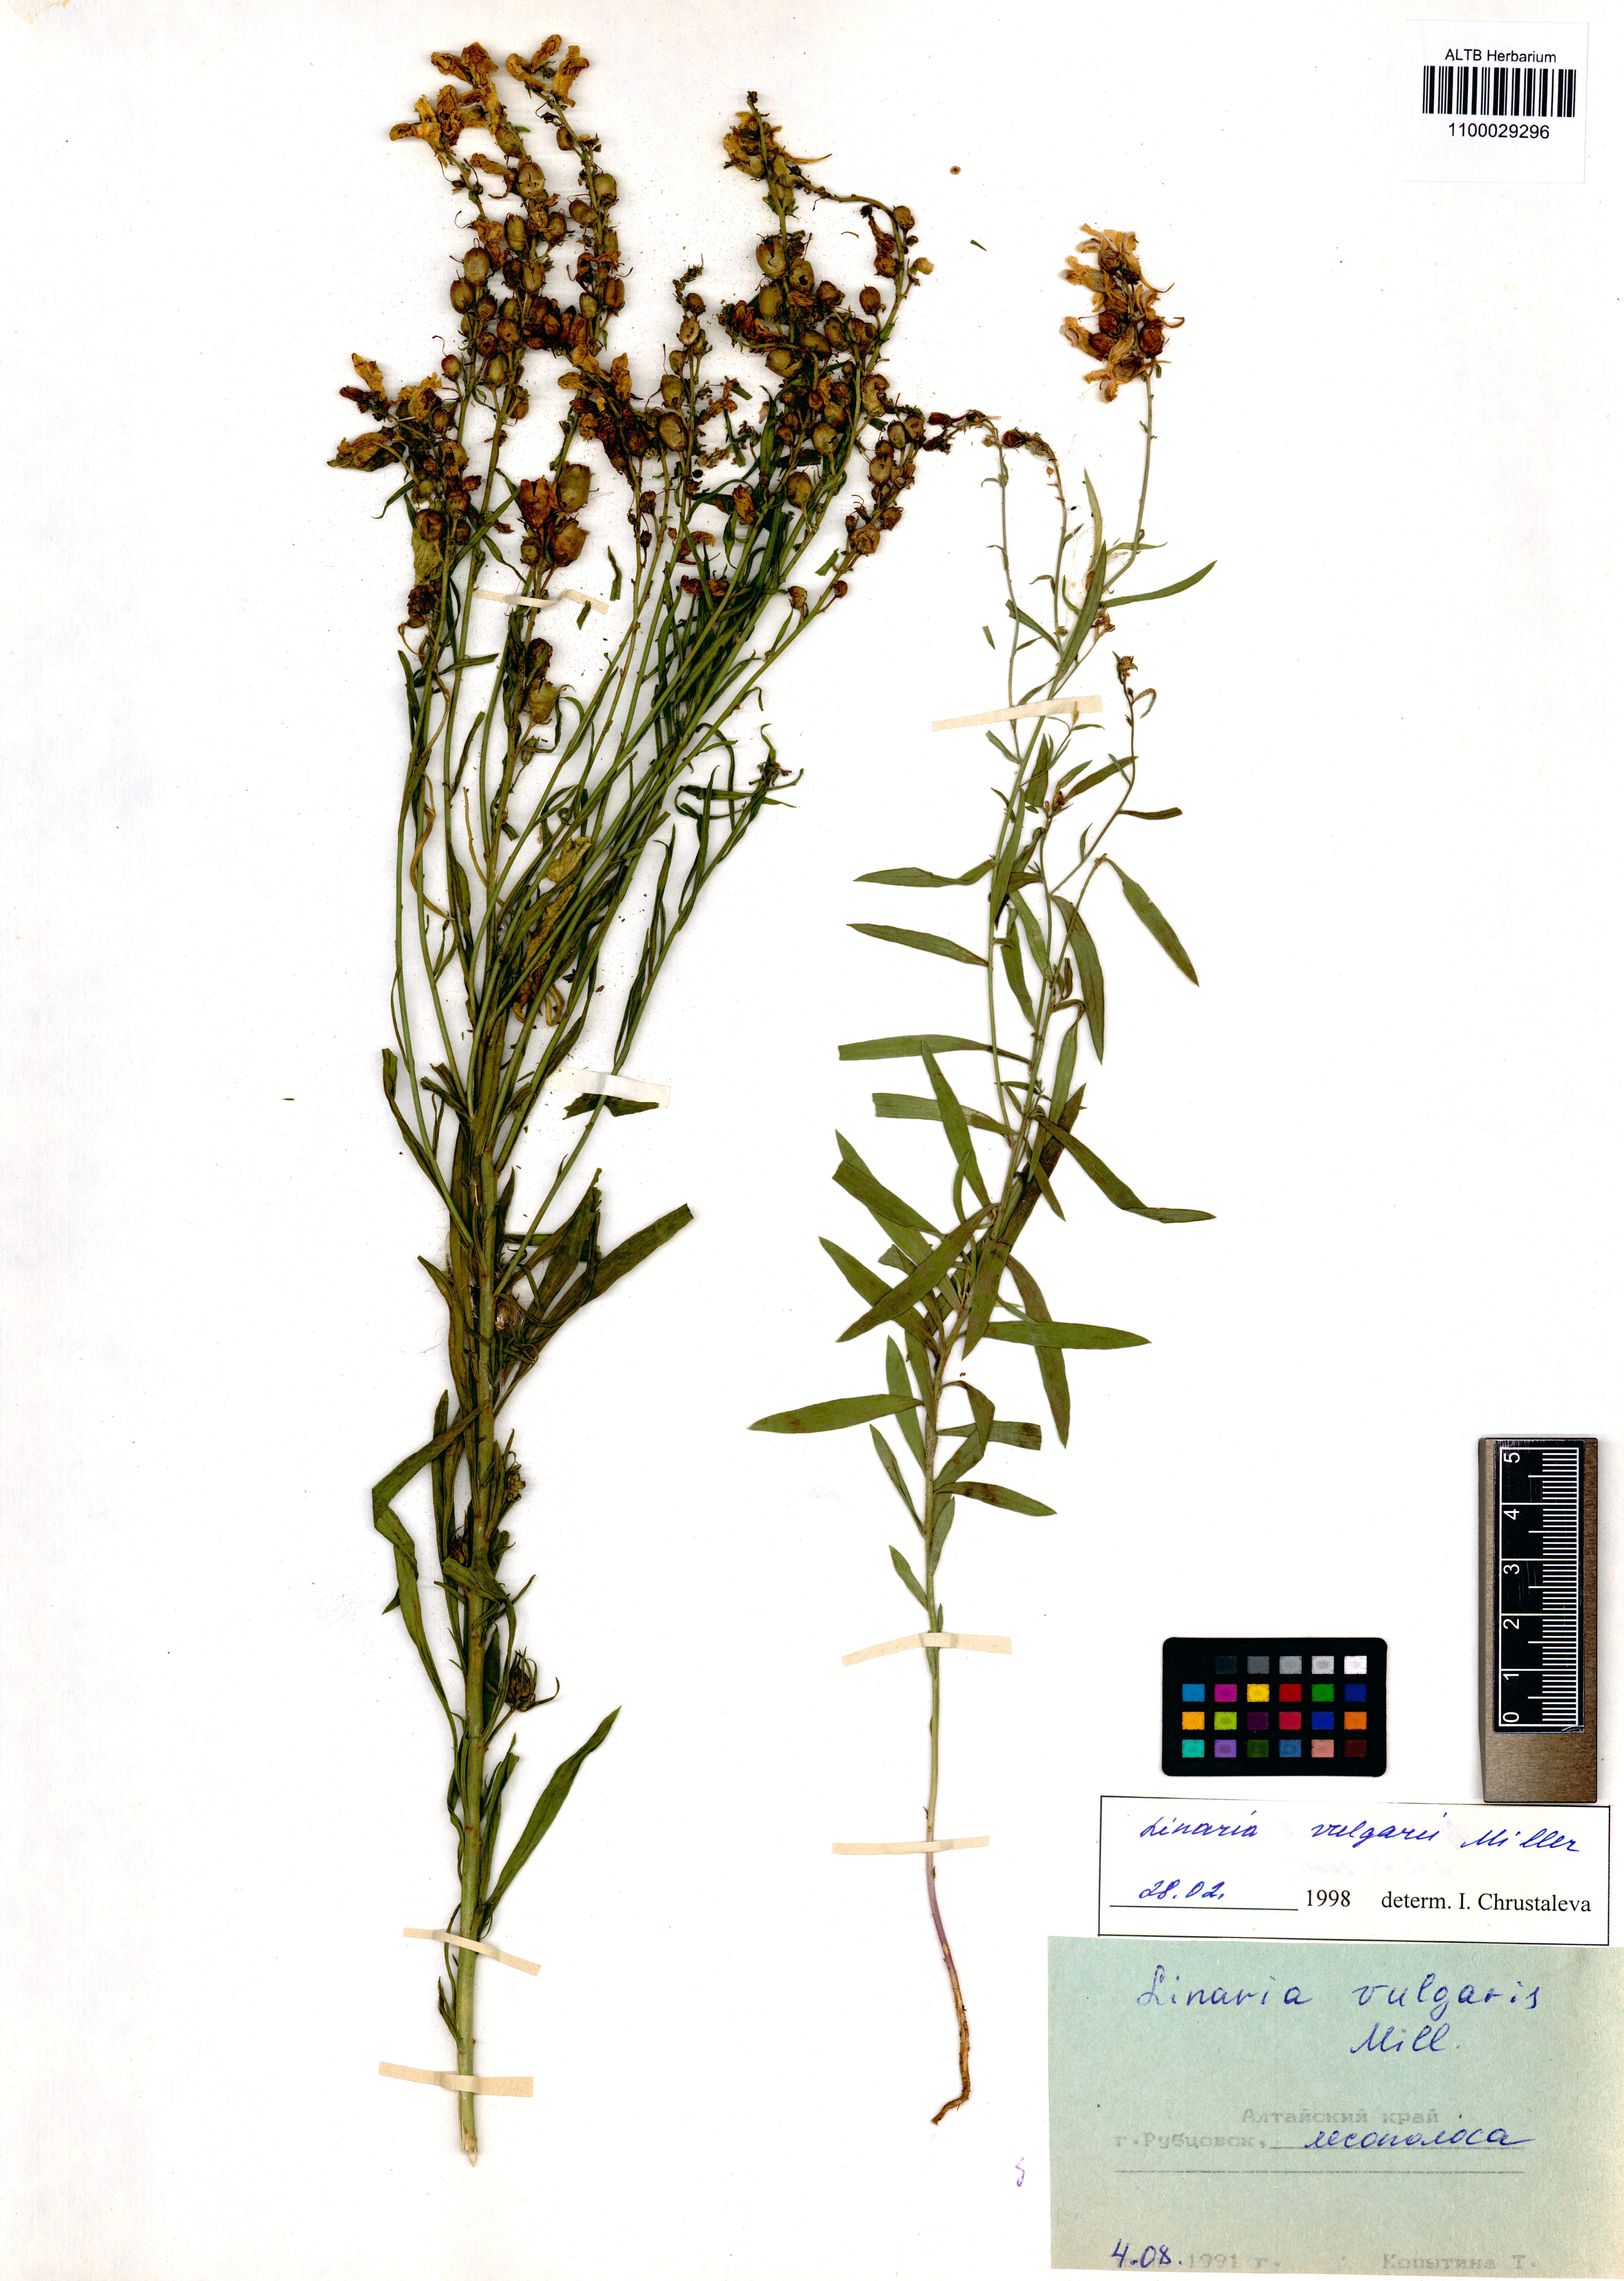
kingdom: Plantae
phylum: Tracheophyta
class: Magnoliopsida
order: Lamiales
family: Plantaginaceae
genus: Linaria
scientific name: Linaria vulgaris
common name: Butter and eggs
